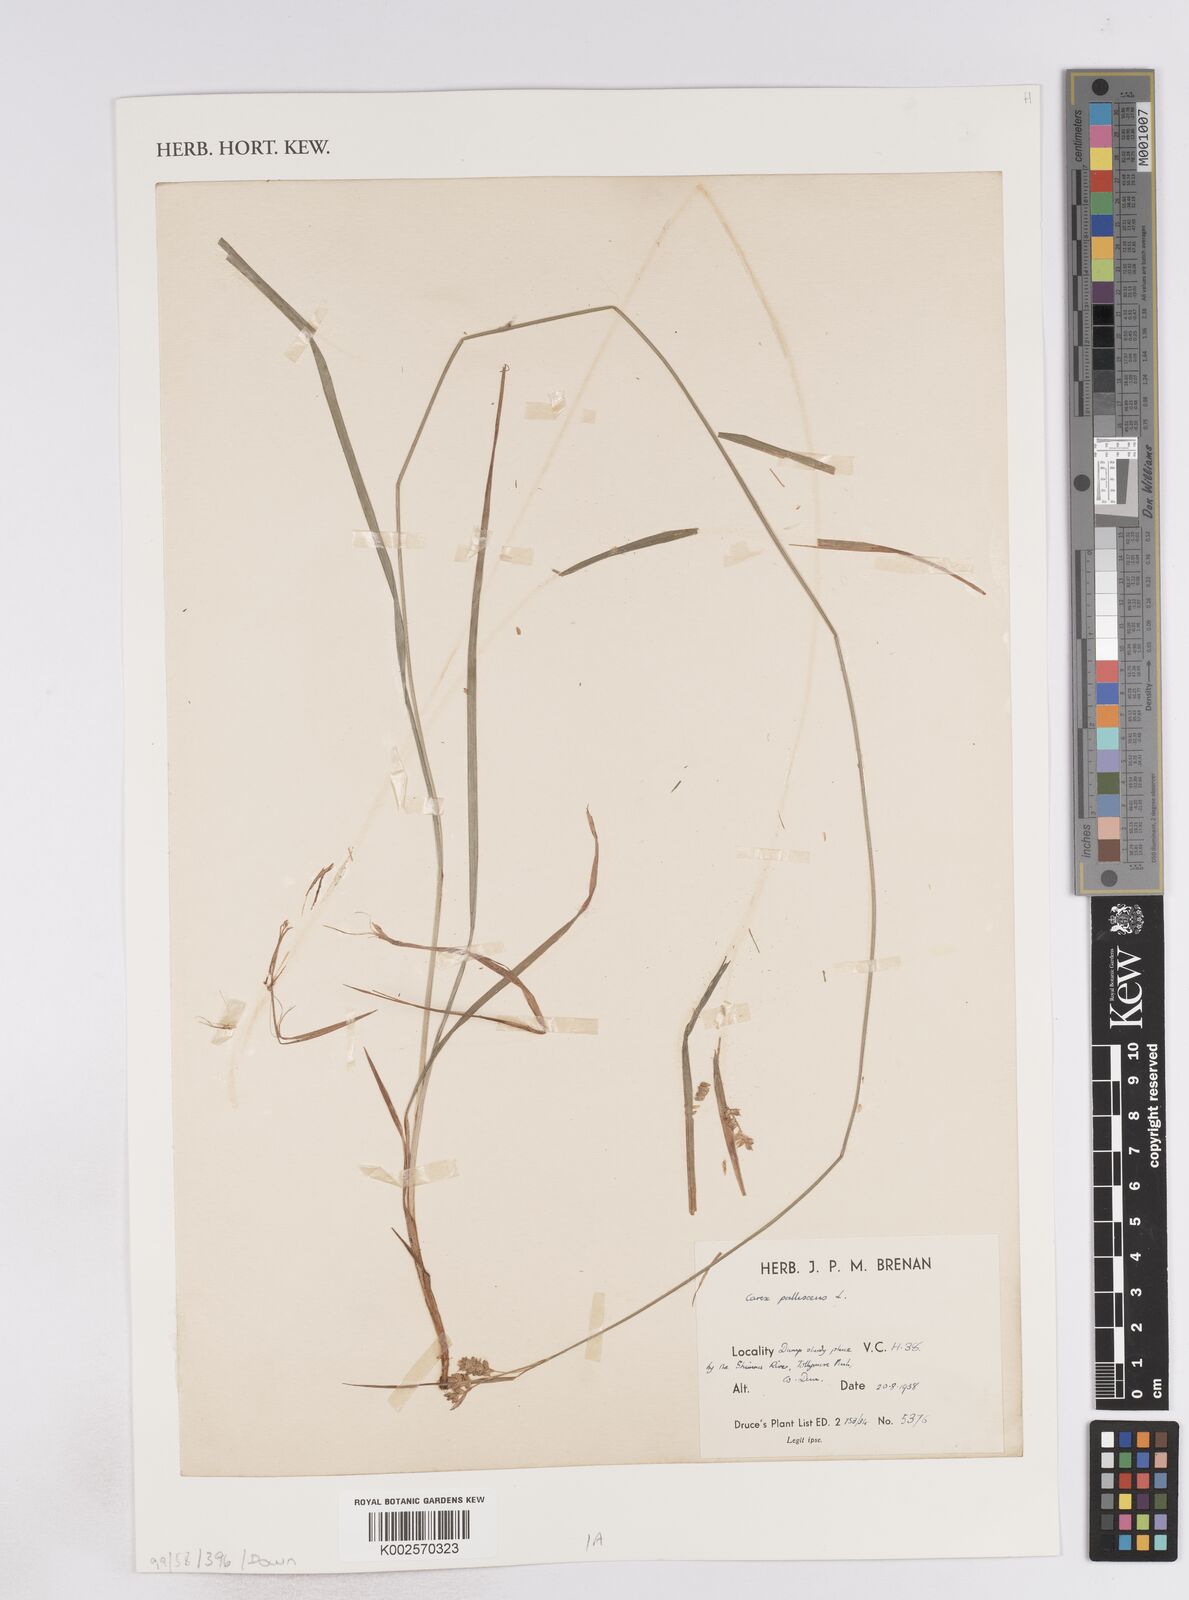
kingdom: Plantae
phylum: Tracheophyta
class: Liliopsida
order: Poales
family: Cyperaceae
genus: Carex
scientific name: Carex pallescens
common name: Pale sedge
